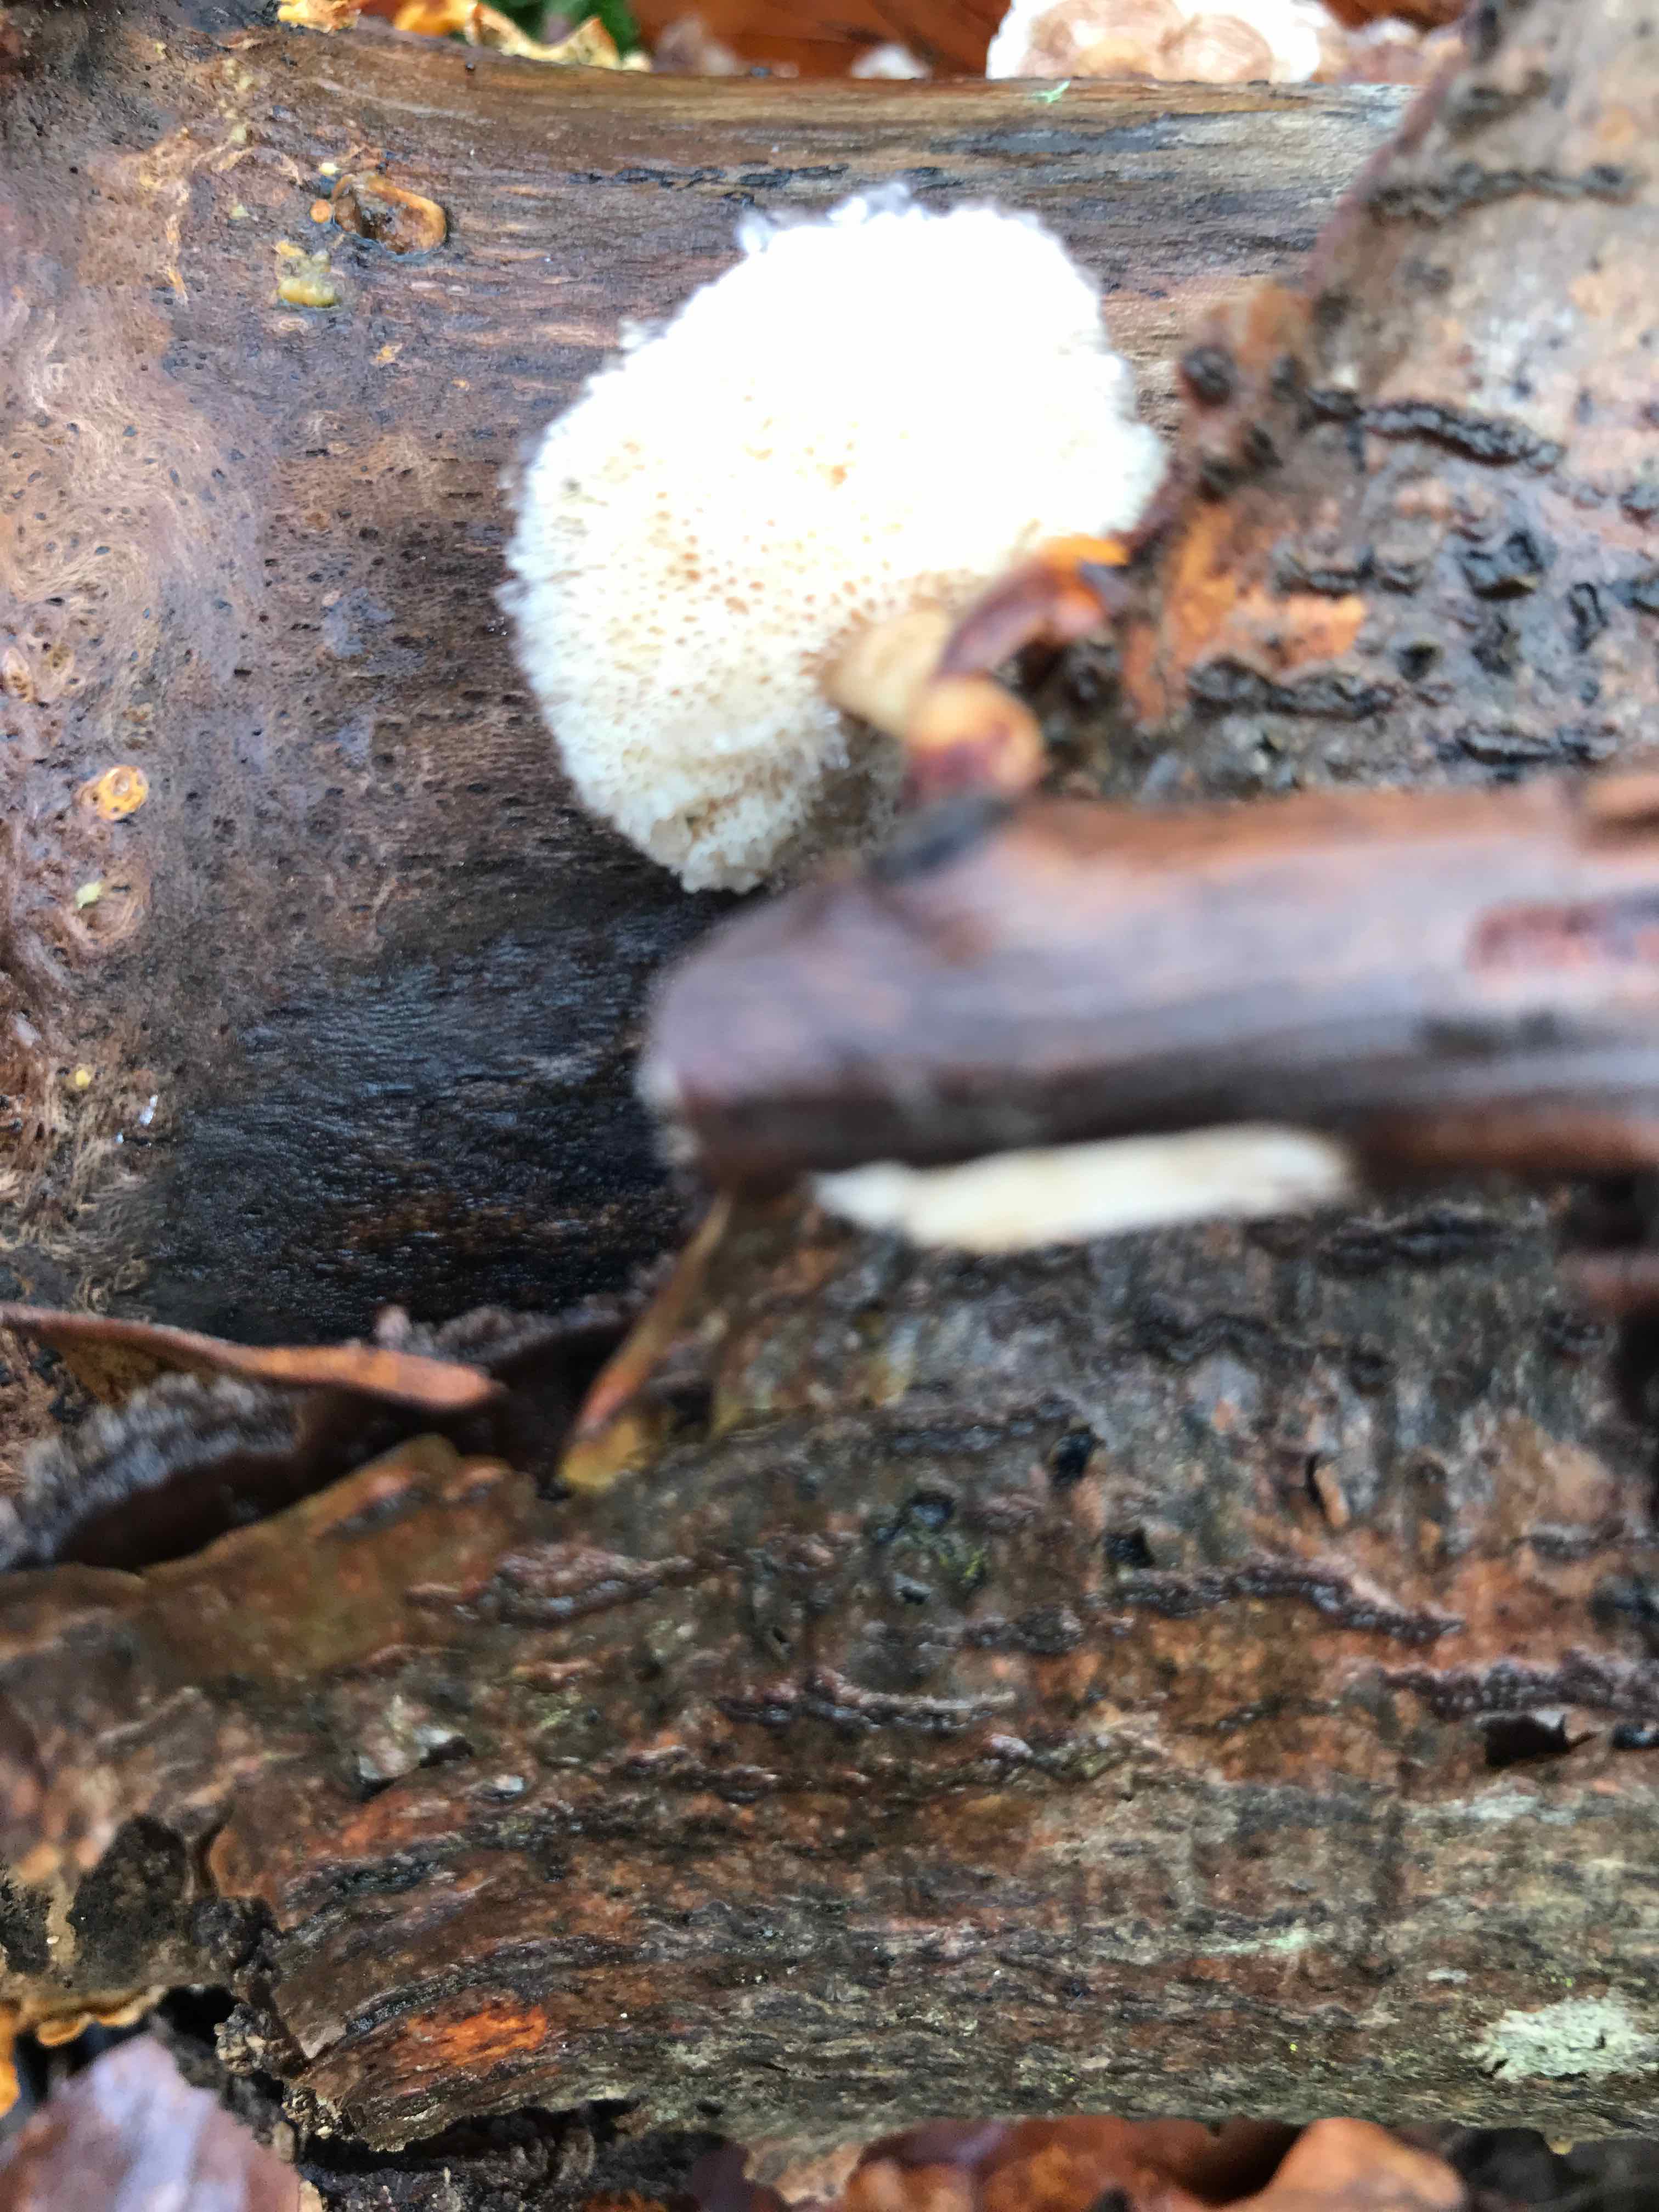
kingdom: Fungi
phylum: Basidiomycota
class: Agaricomycetes
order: Polyporales
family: Polyporaceae
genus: Lentinus
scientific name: Lentinus brumalis
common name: vinter-stilkporesvamp
